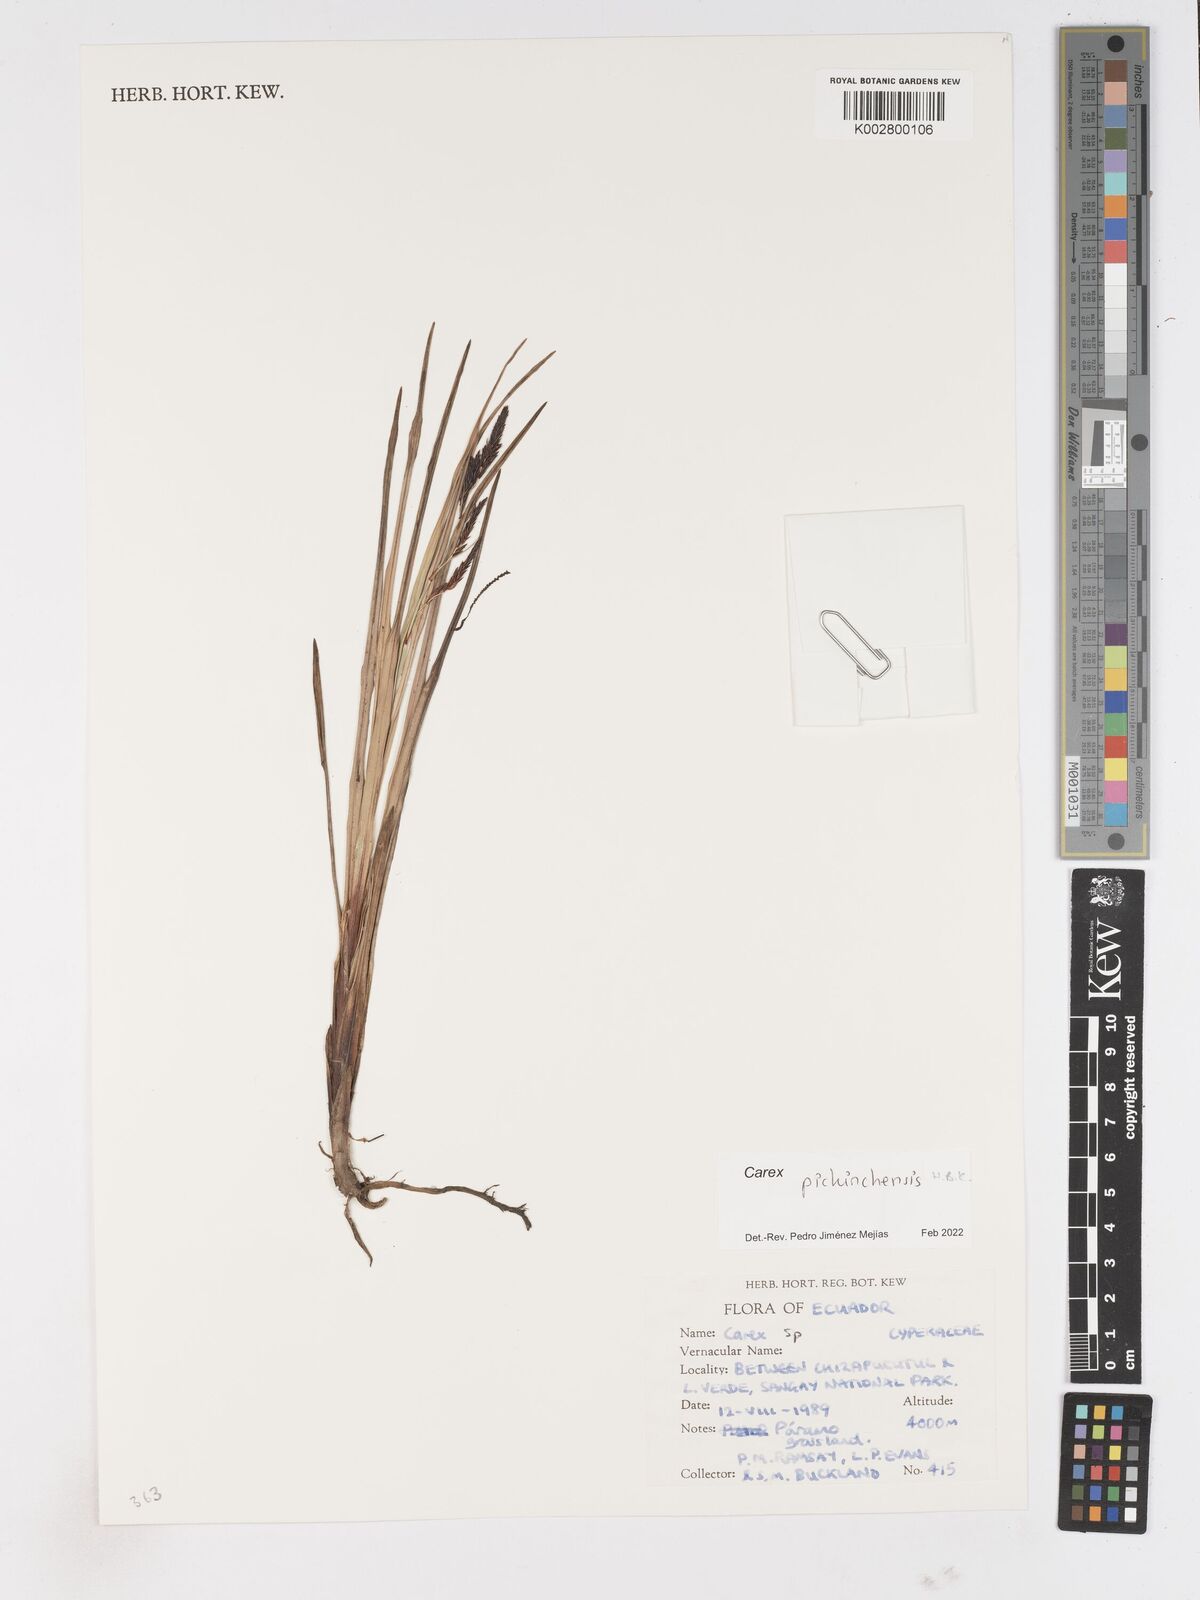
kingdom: Plantae
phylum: Tracheophyta
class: Liliopsida
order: Poales
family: Cyperaceae
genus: Carex
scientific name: Carex pichinchensis
